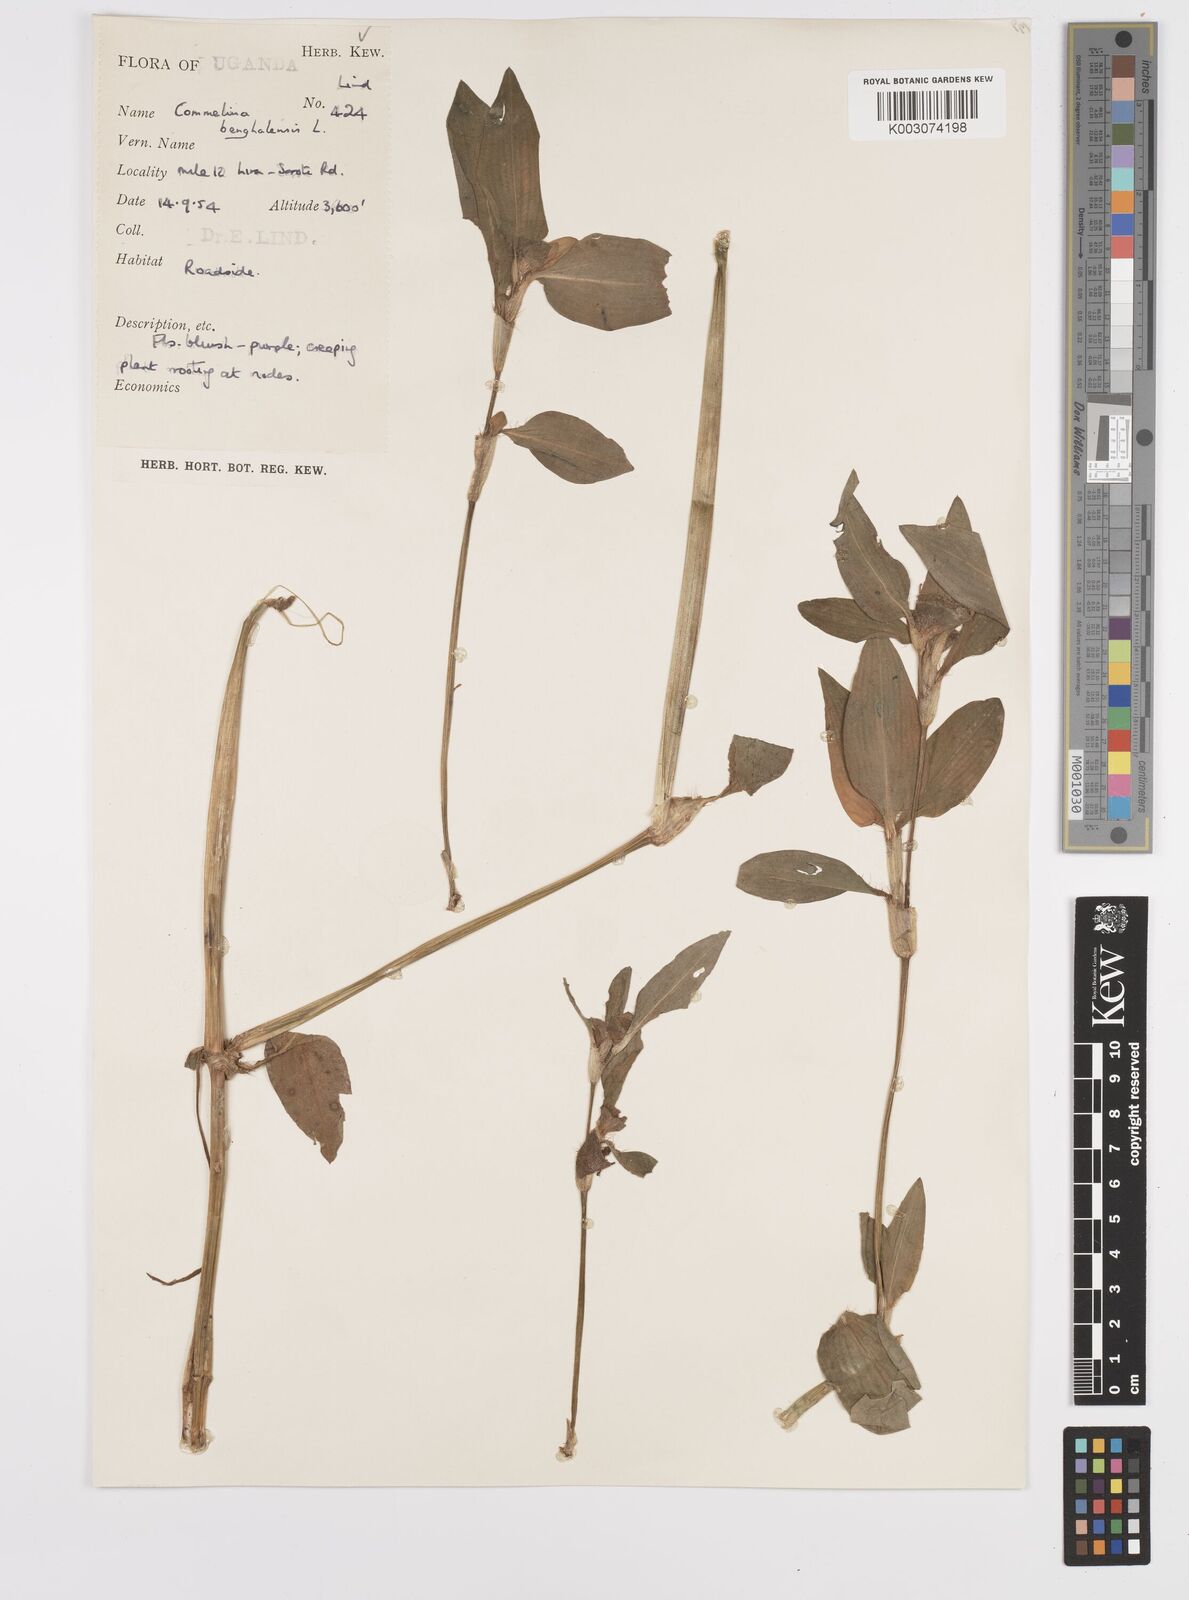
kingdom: Plantae
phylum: Tracheophyta
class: Liliopsida
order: Commelinales
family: Commelinaceae
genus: Commelina
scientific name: Commelina benghalensis
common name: Jio
